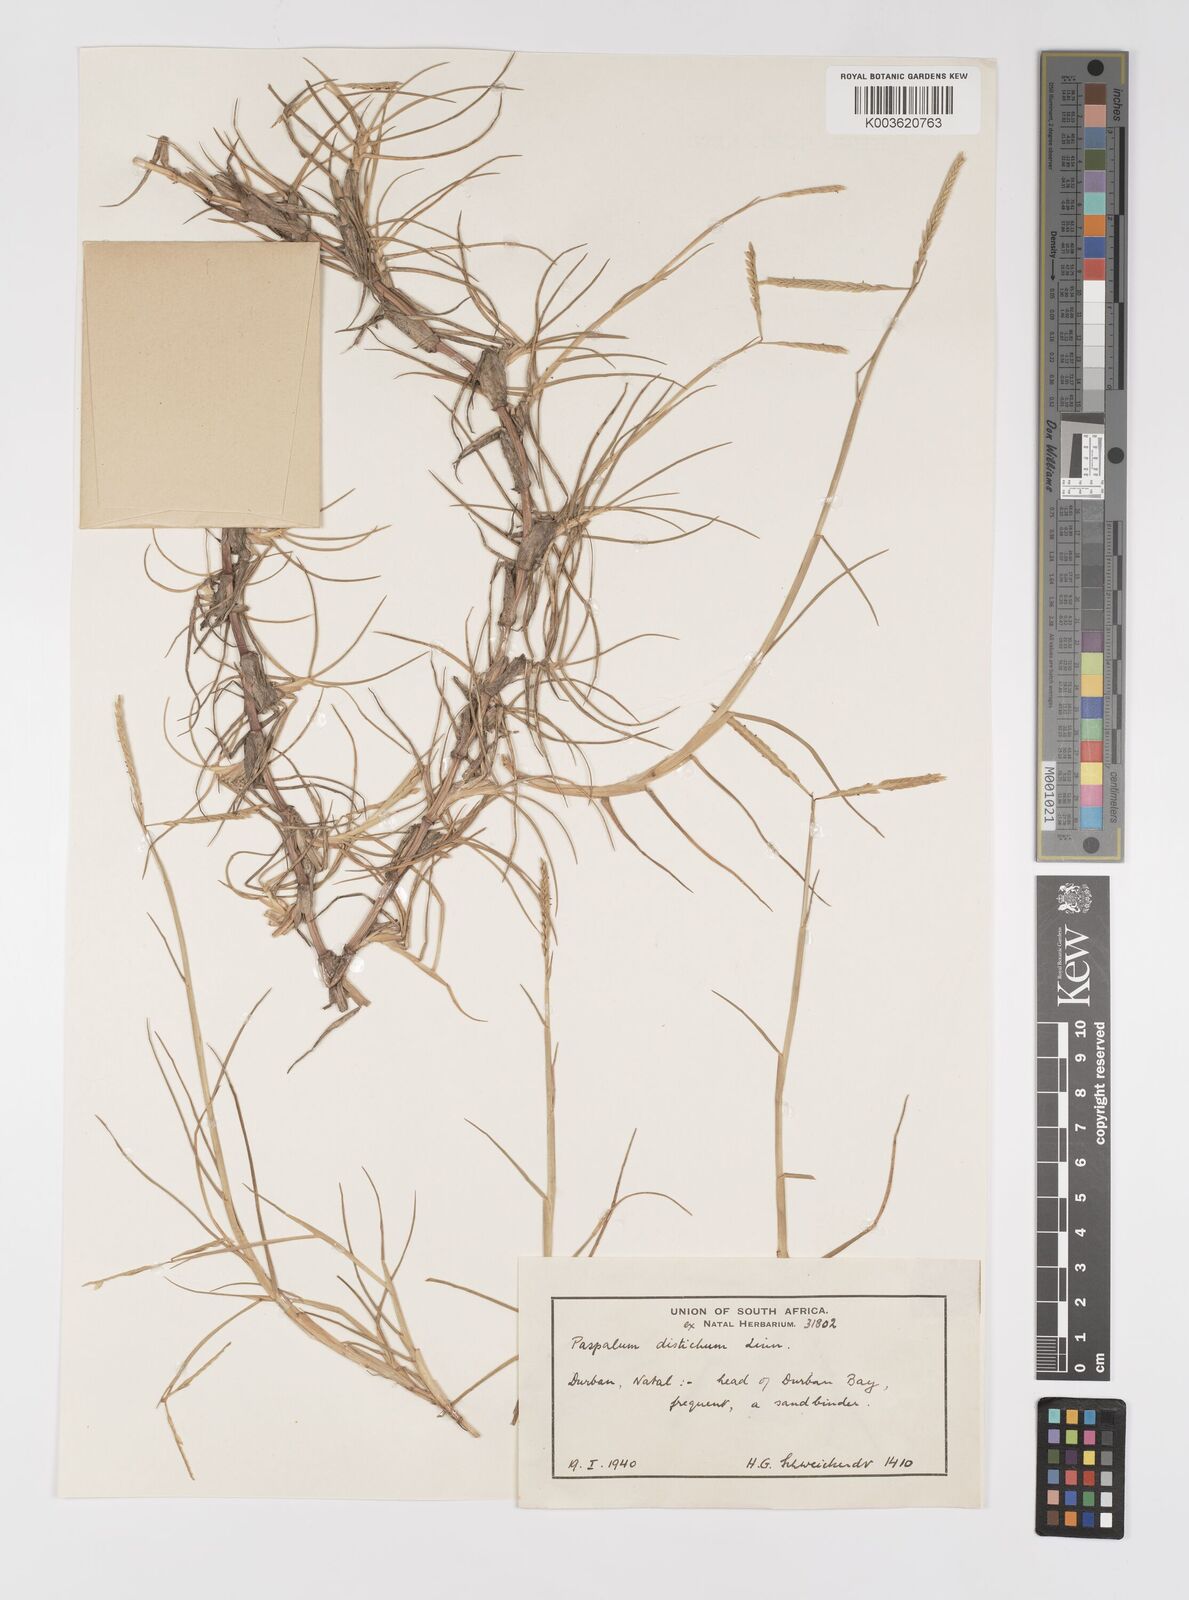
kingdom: Plantae
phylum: Tracheophyta
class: Liliopsida
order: Poales
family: Poaceae
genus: Paspalum
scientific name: Paspalum vaginatum
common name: Seashore paspalum
